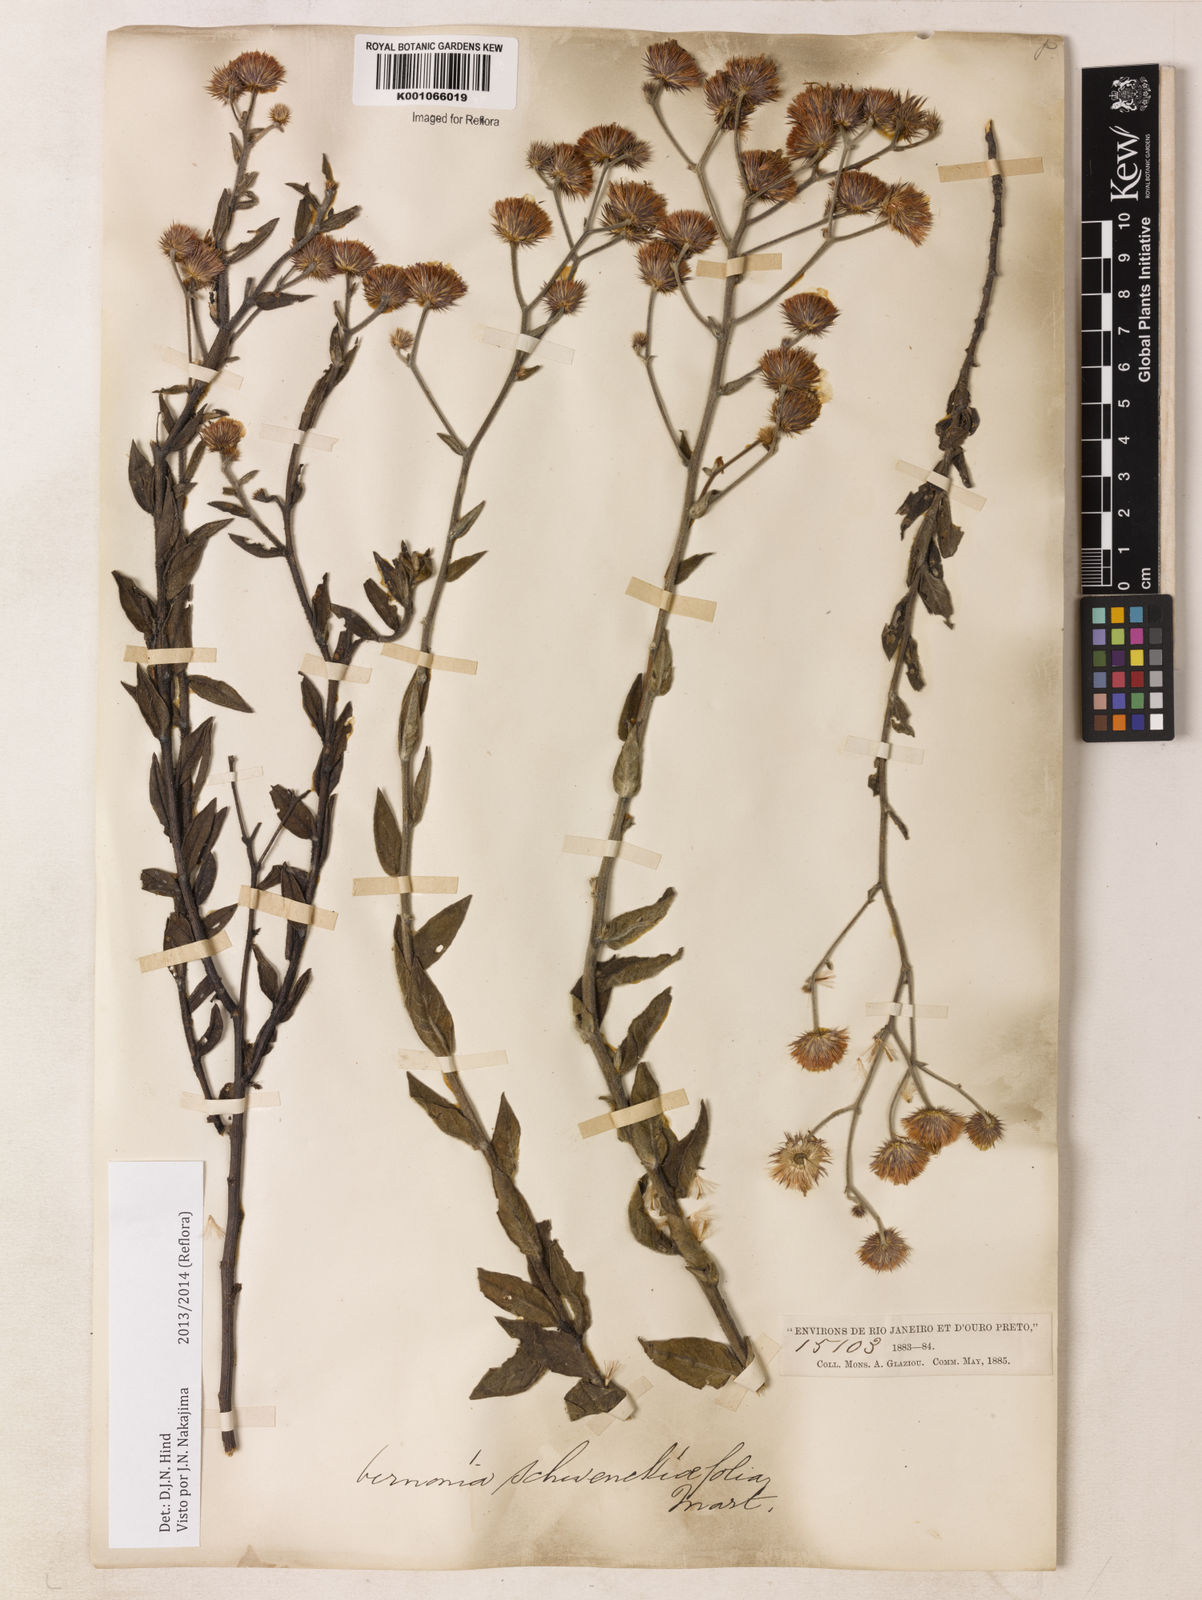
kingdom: Plantae
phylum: Tracheophyta
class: Magnoliopsida
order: Asterales
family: Asteraceae
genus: Vernonia
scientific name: Vernonia
